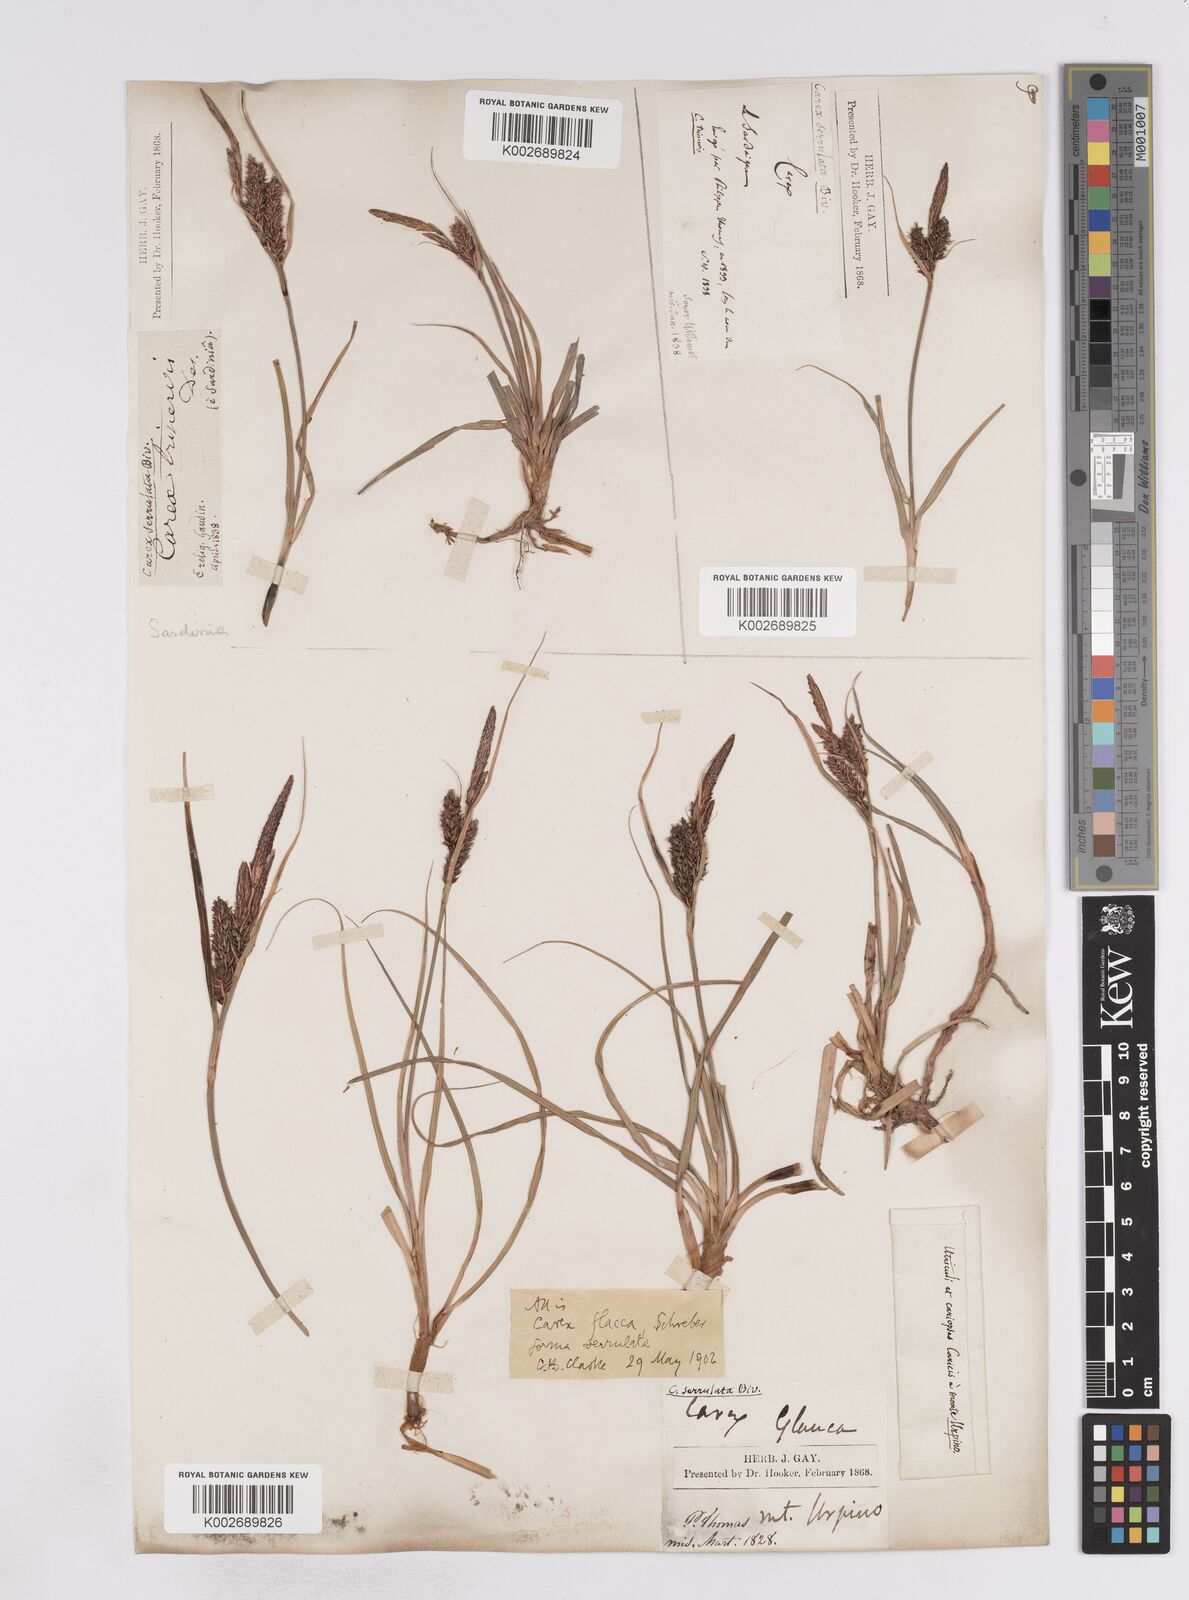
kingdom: Plantae
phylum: Tracheophyta
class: Liliopsida
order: Poales
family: Cyperaceae
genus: Carex
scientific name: Carex flacca
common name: Glaucous sedge
